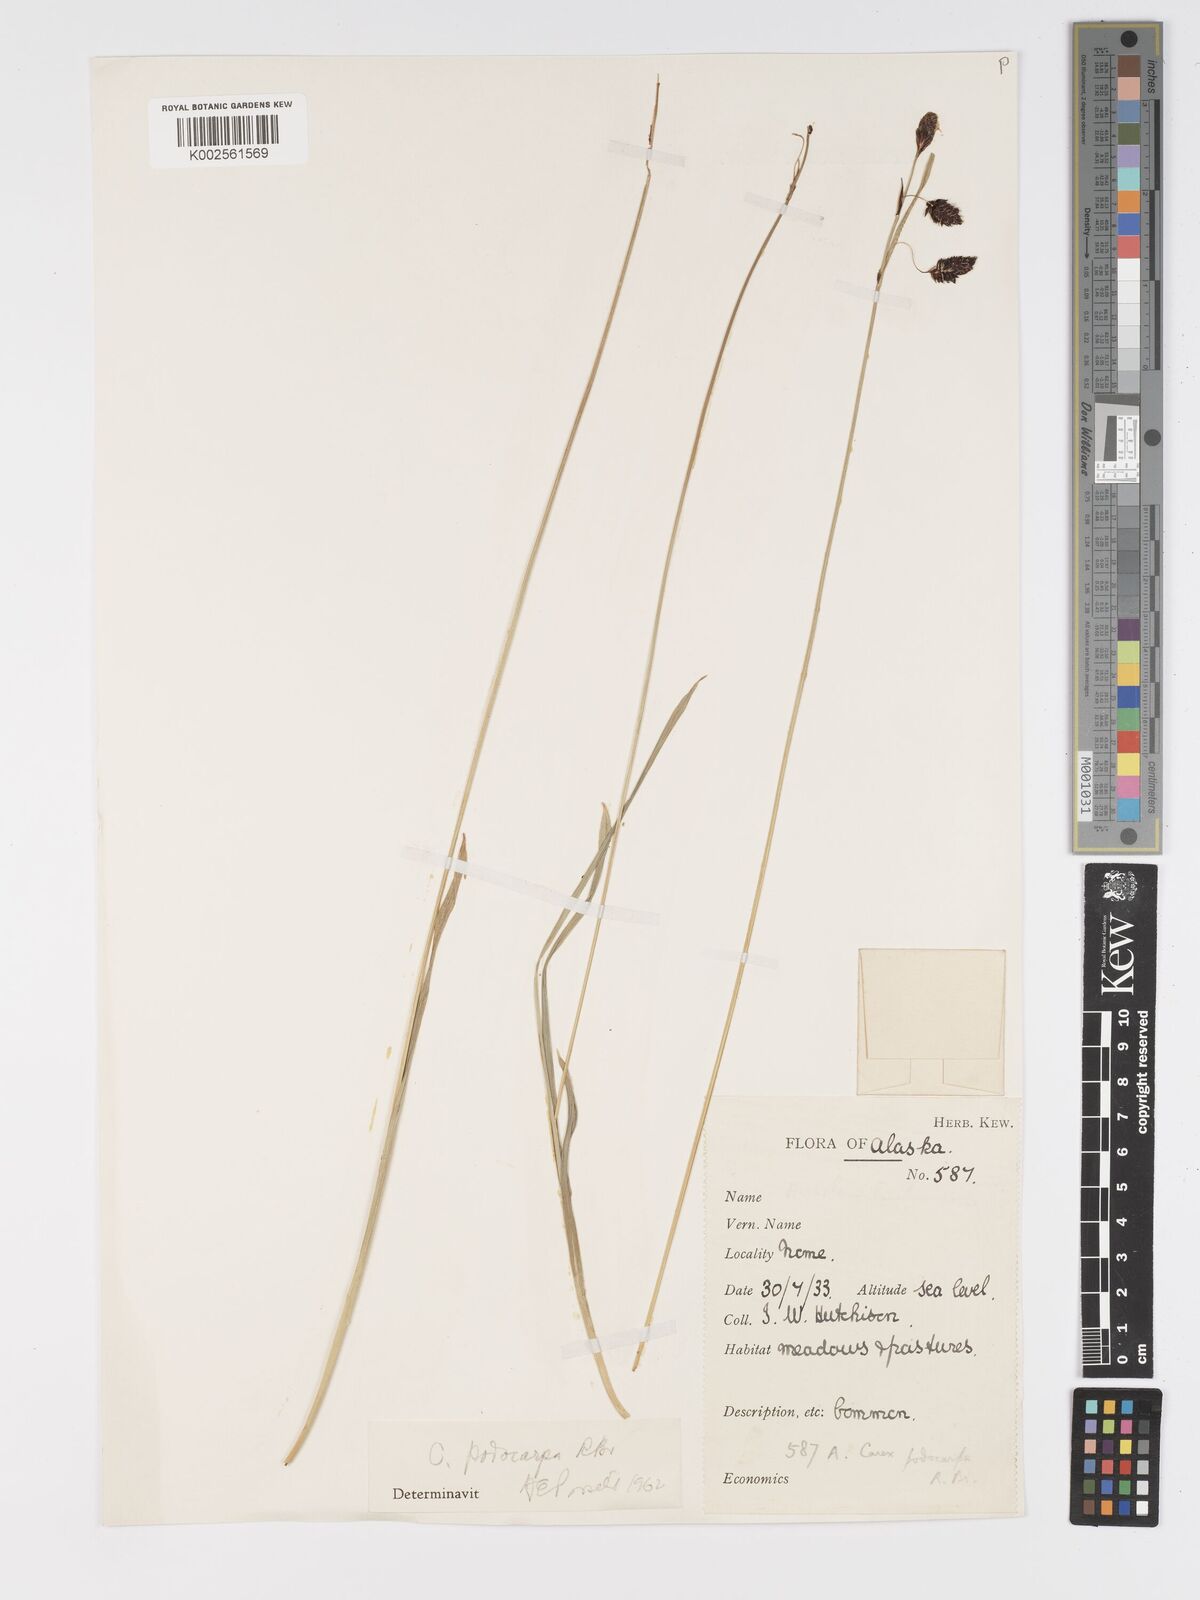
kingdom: Plantae
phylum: Tracheophyta
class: Liliopsida
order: Poales
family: Cyperaceae
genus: Carex
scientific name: Carex podocarpa
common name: Alpine sedge
